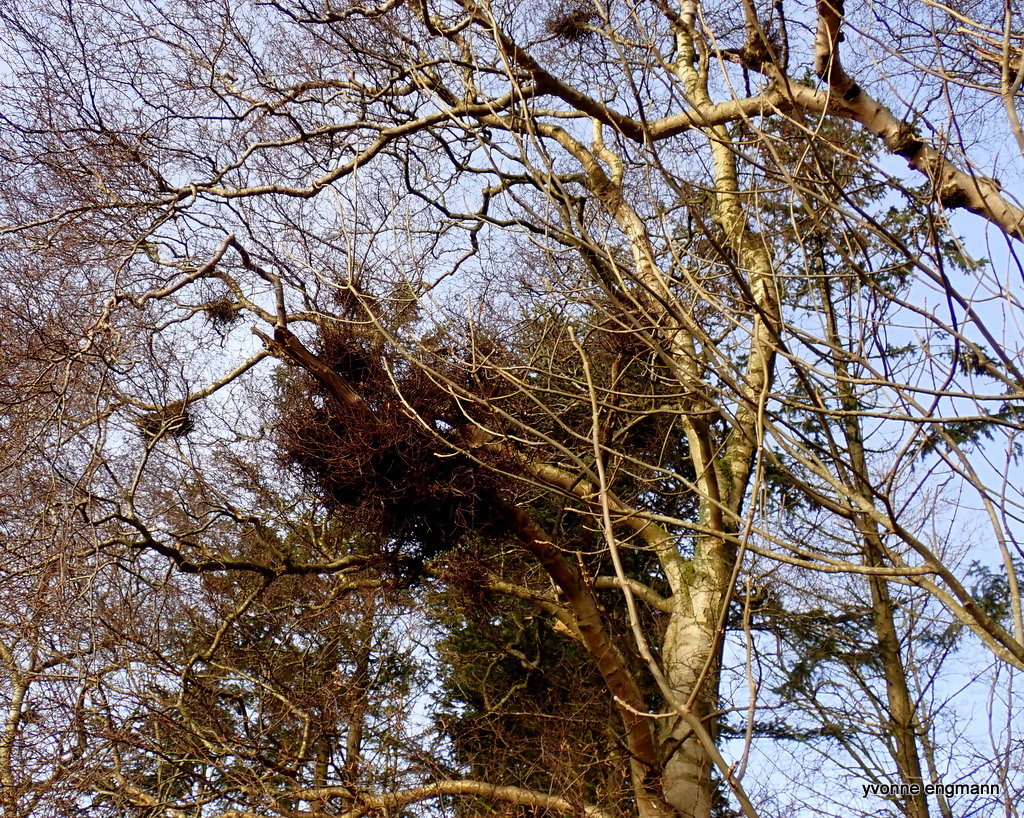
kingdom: Fungi
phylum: Ascomycota
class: Taphrinomycetes
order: Taphrinales
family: Taphrinaceae
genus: Taphrina
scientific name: Taphrina betulina
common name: hekse-sækdug
